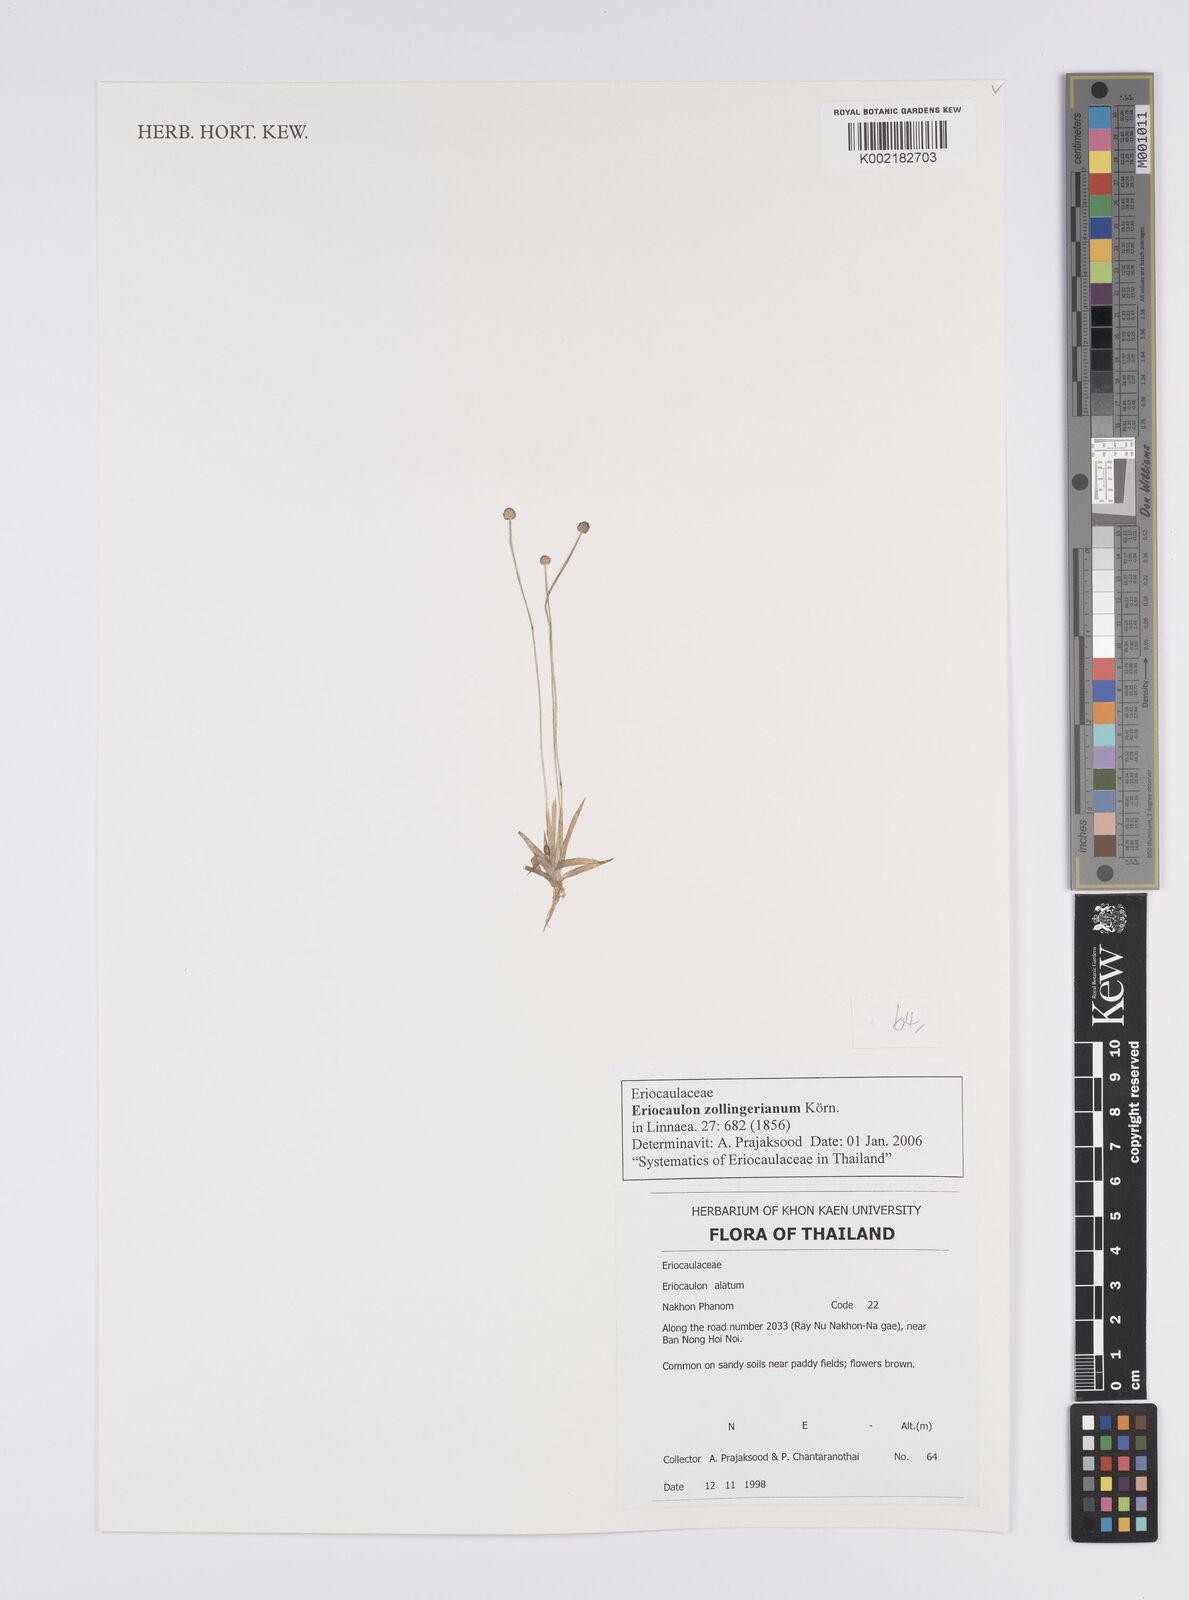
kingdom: Plantae
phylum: Tracheophyta
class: Liliopsida
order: Poales
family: Eriocaulaceae
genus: Eriocaulon
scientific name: Eriocaulon zollingerianum
